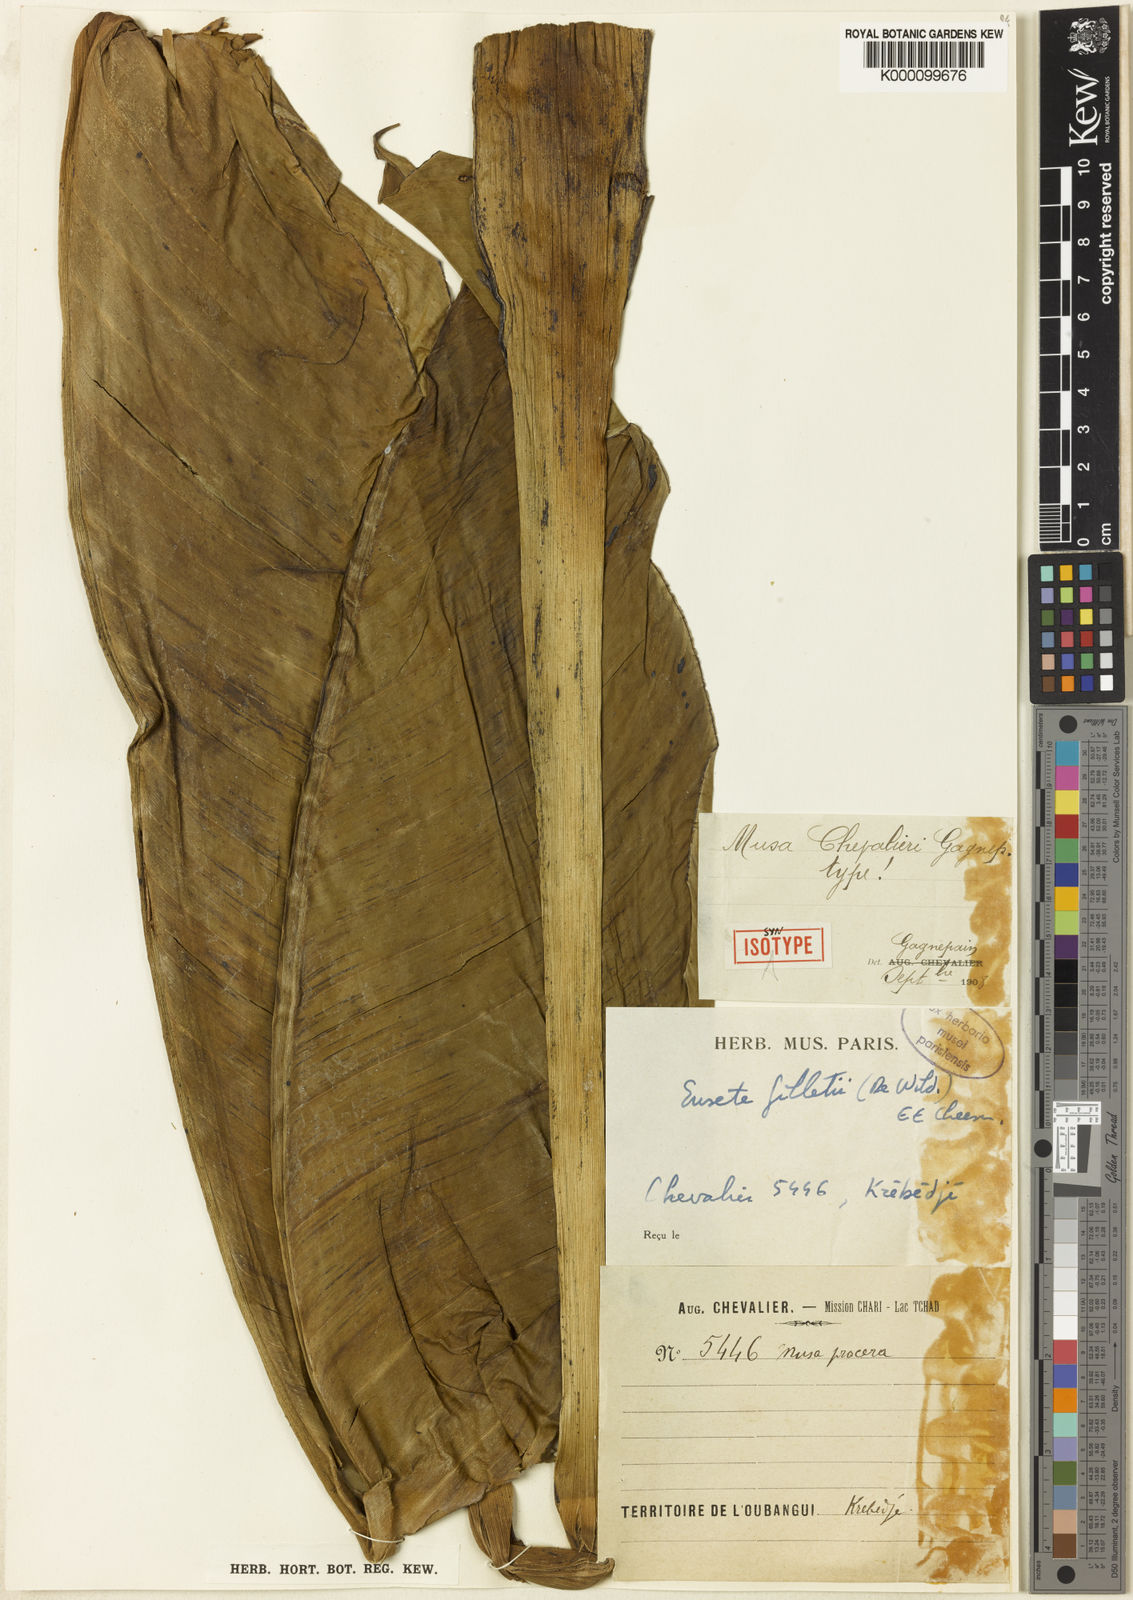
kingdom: Plantae
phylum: Tracheophyta
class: Liliopsida
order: Zingiberales
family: Musaceae
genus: Ensete
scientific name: Ensete livingstonianum
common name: Livingston's banana
